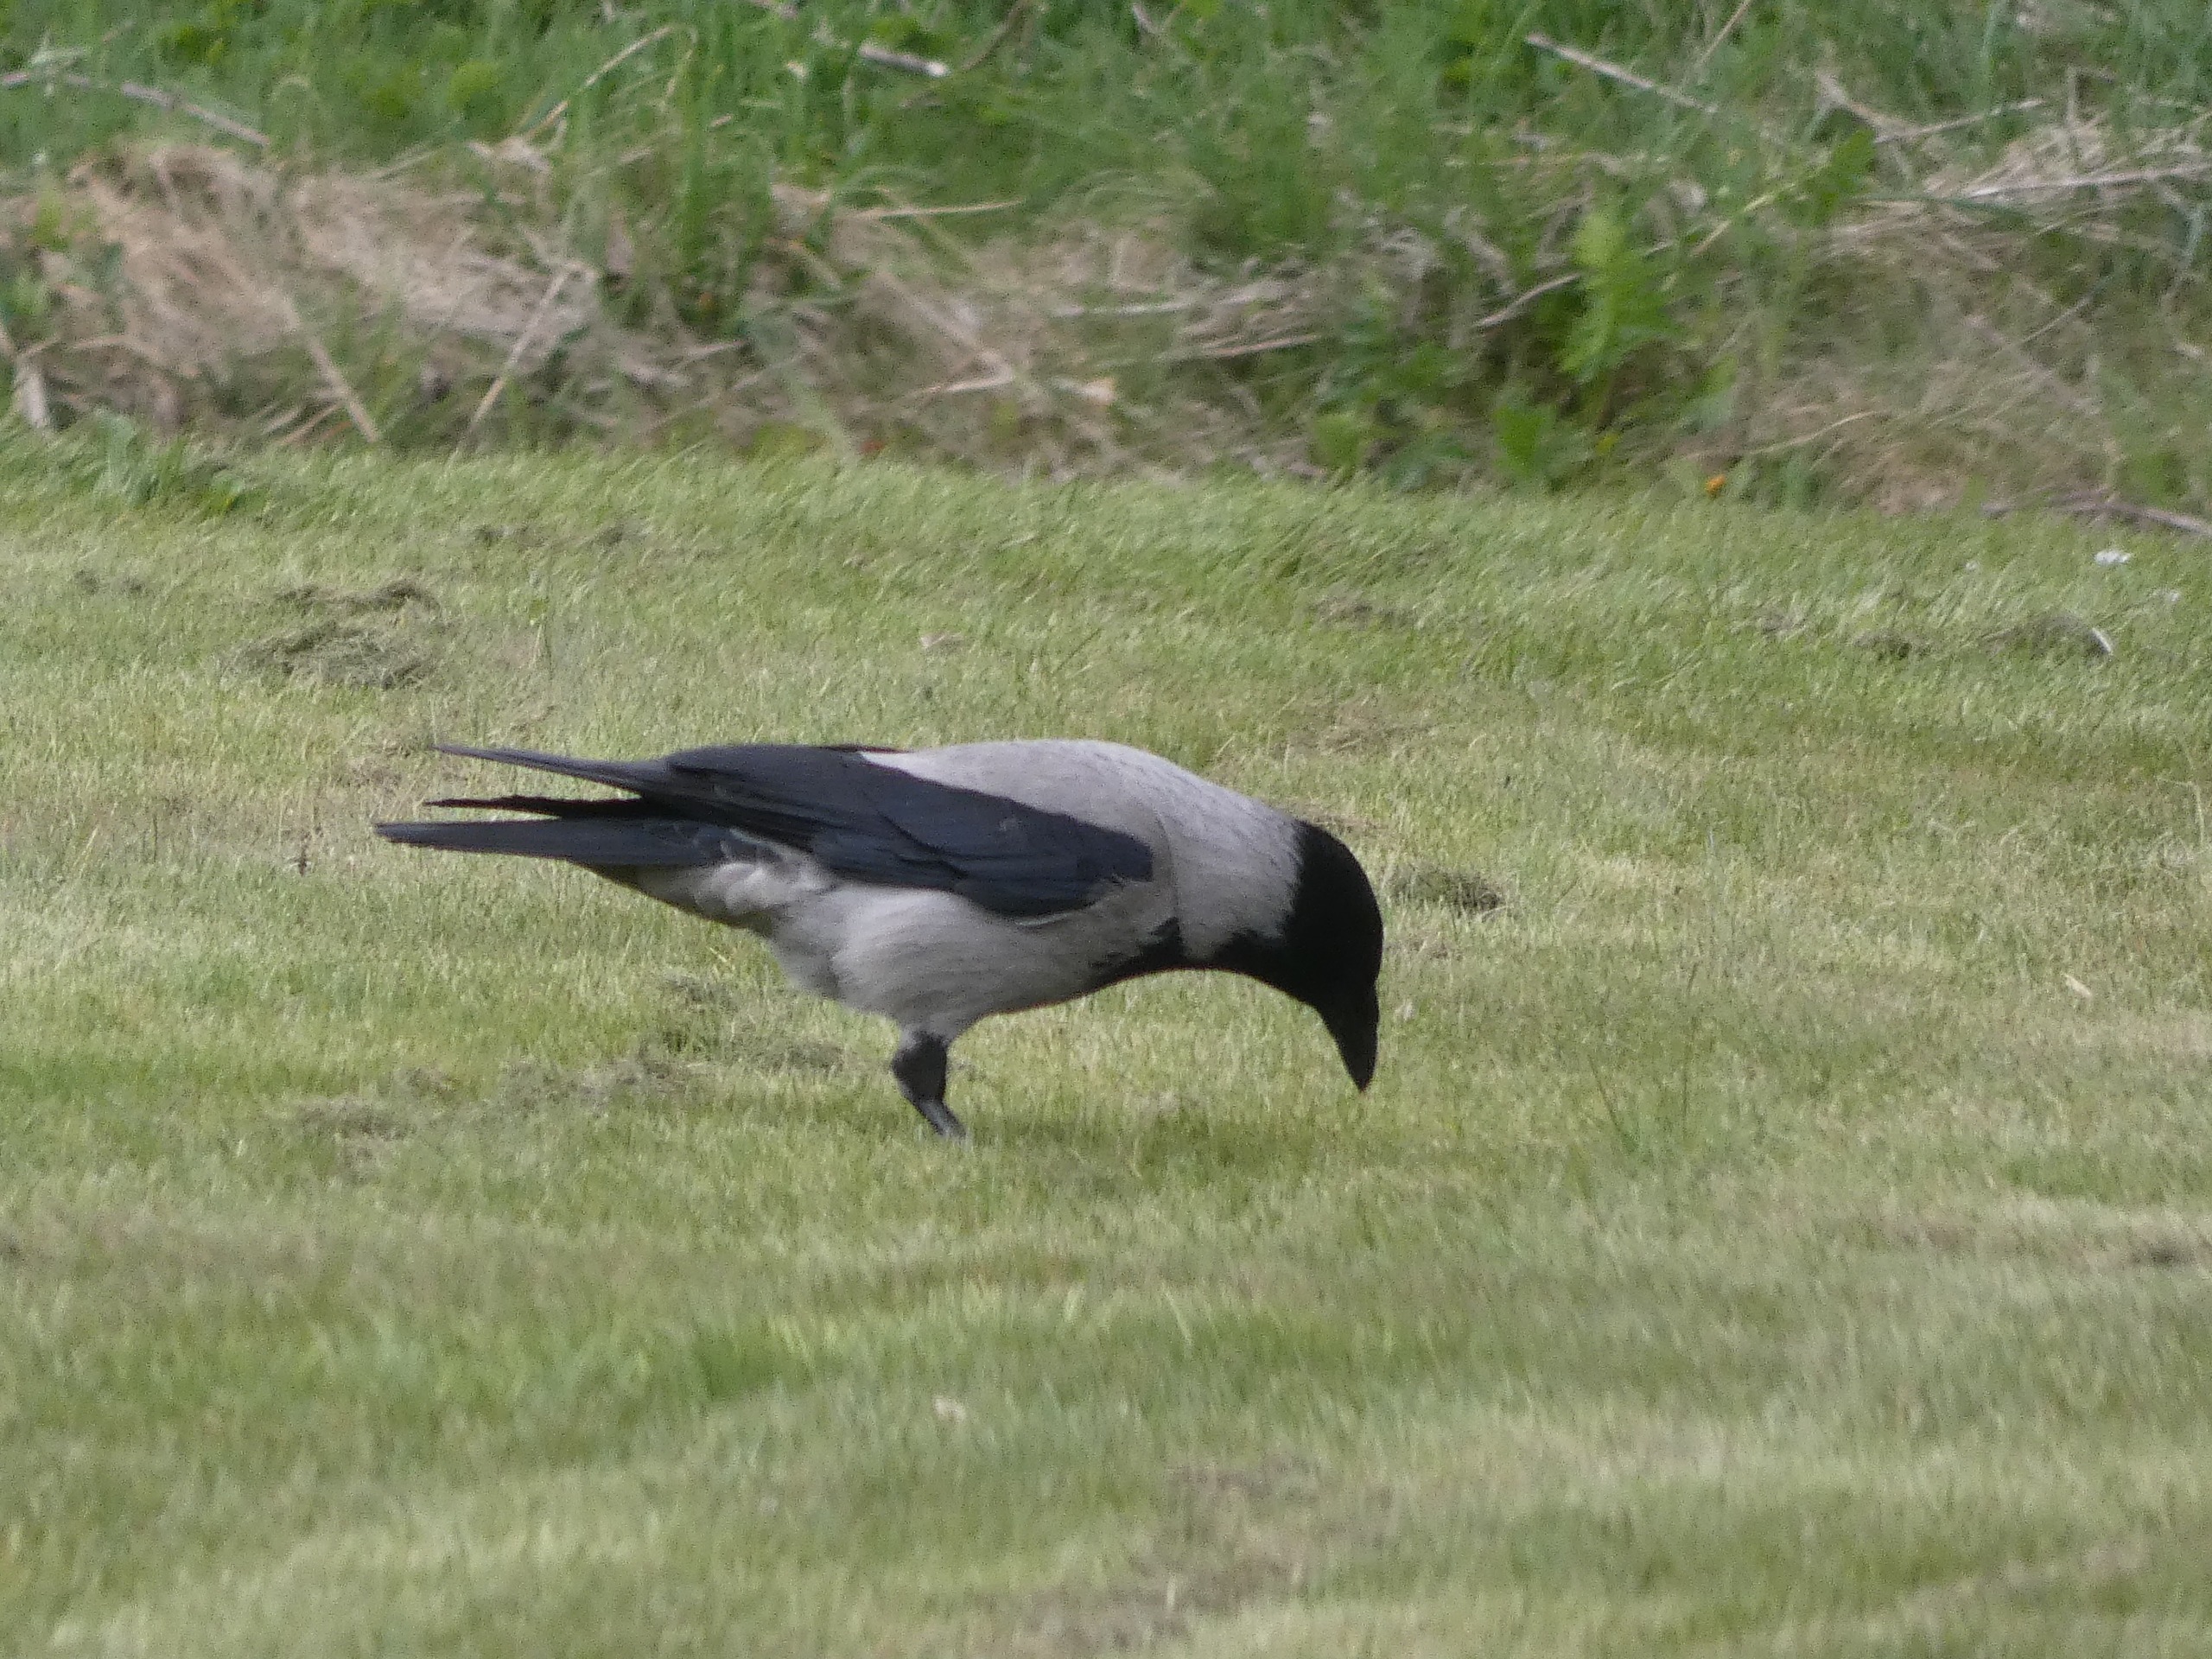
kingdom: Animalia
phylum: Chordata
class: Aves
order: Passeriformes
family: Corvidae
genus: Corvus
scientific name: Corvus cornix
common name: Gråkrage
